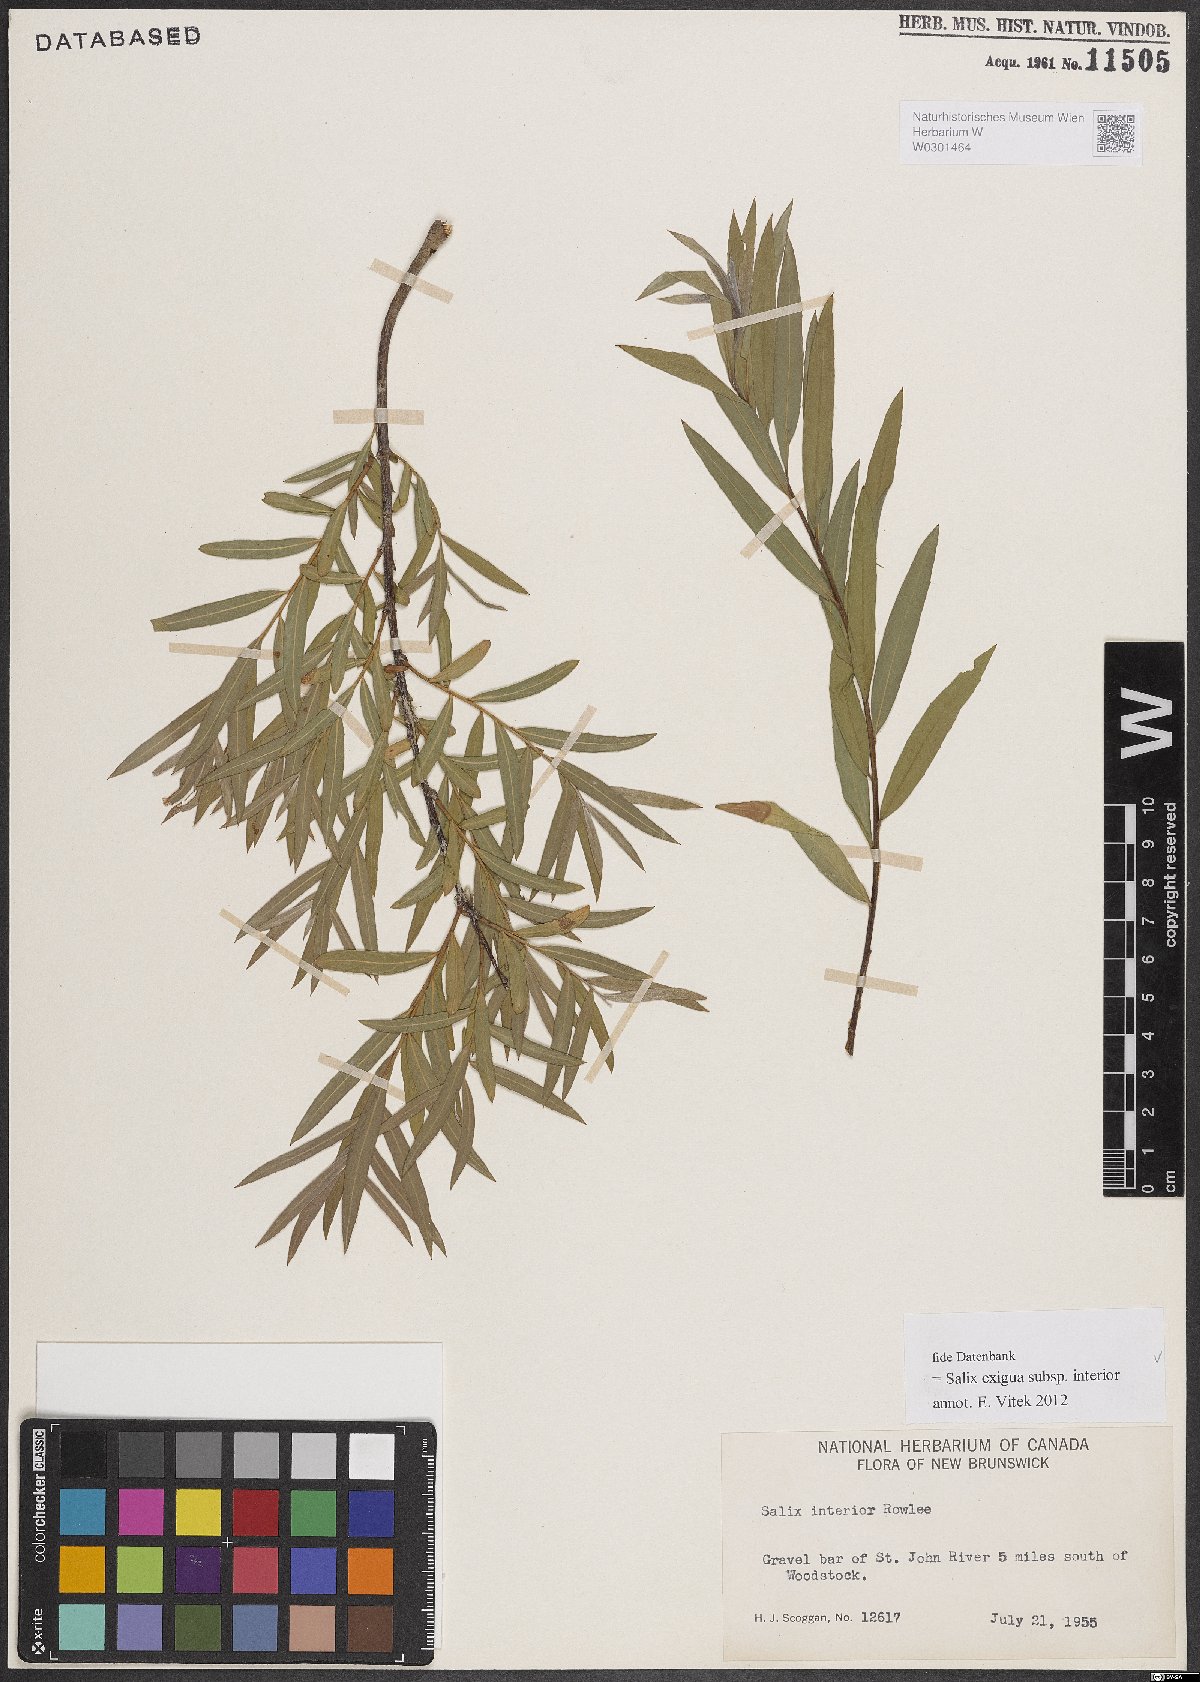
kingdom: Plantae
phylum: Tracheophyta
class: Magnoliopsida
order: Malpighiales
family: Salicaceae
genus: Salix
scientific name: Salix interior
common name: Sandbar willow
